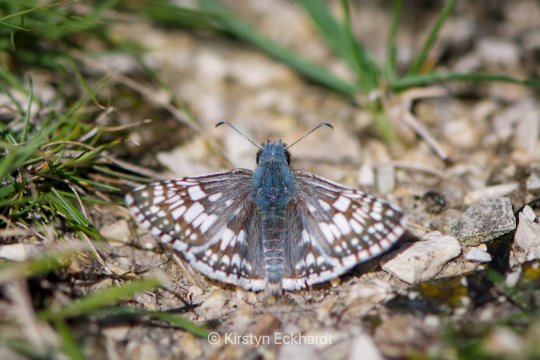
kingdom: Animalia
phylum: Arthropoda
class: Insecta
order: Lepidoptera
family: Hesperiidae
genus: Pyrgus
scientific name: Pyrgus communis
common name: Common Checkered-Skipper
